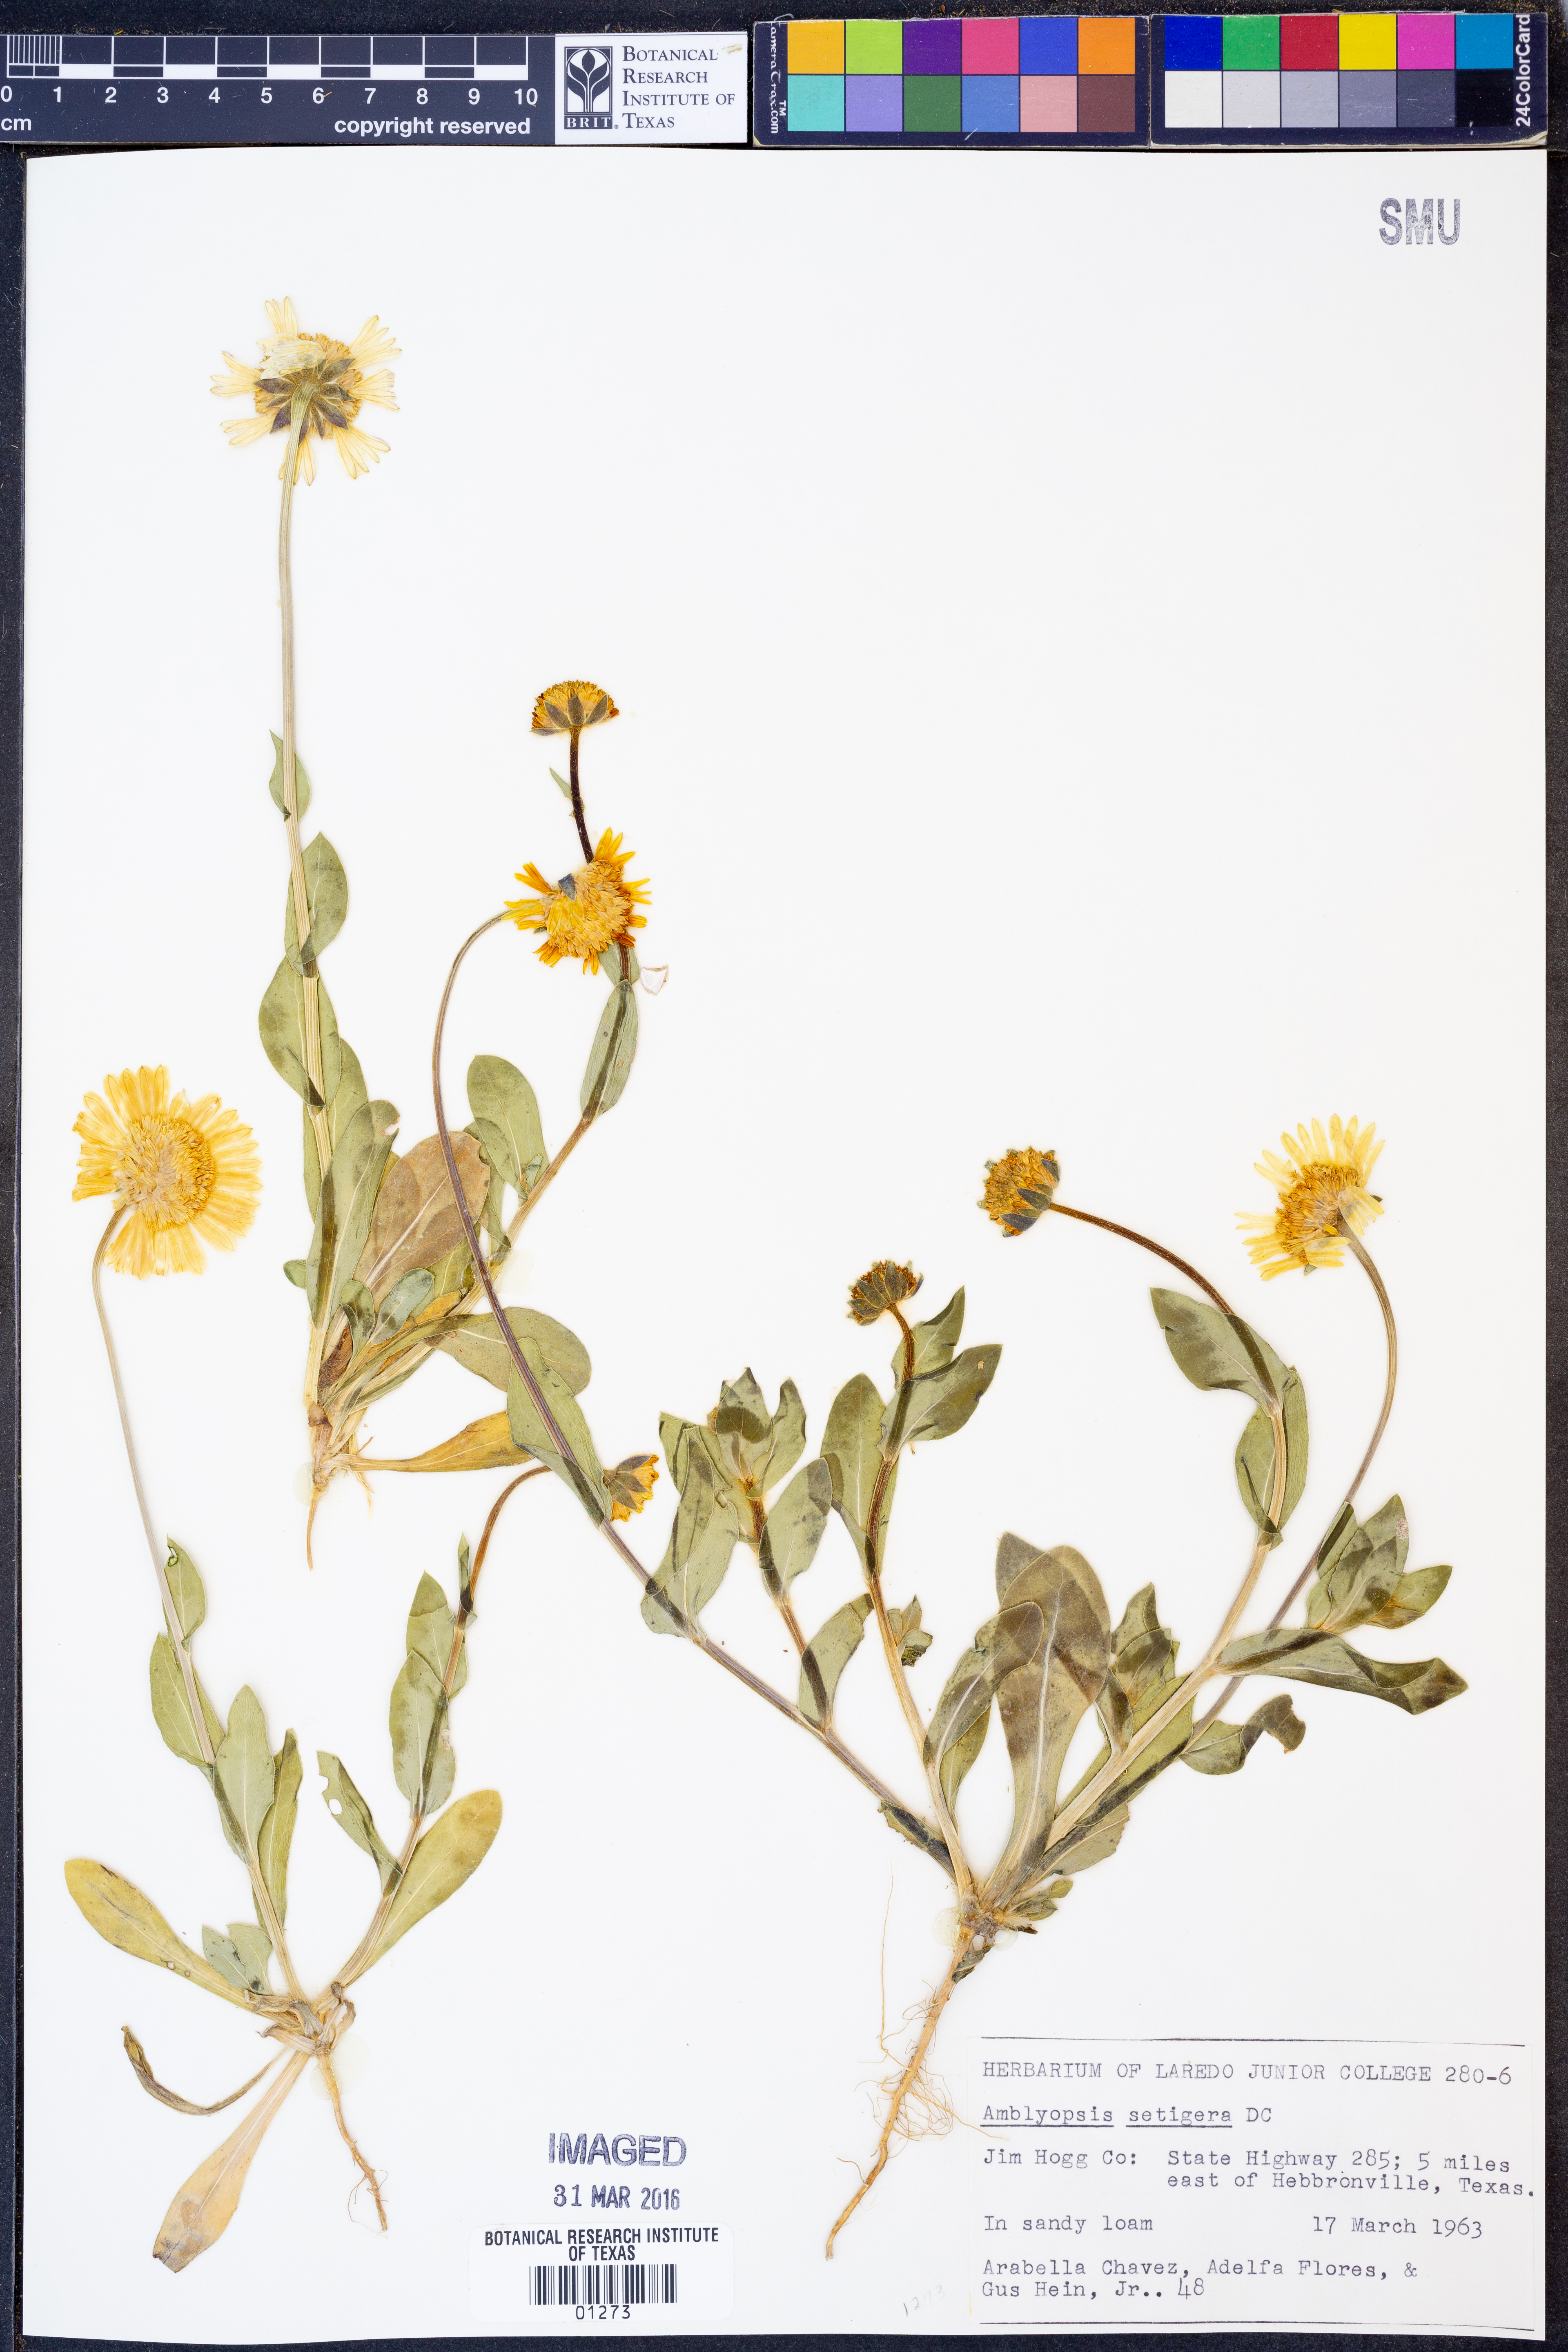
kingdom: Plantae
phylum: Tracheophyta
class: Magnoliopsida
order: Asterales
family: Asteraceae
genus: Amblyolepis
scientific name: Amblyolepis setigera
